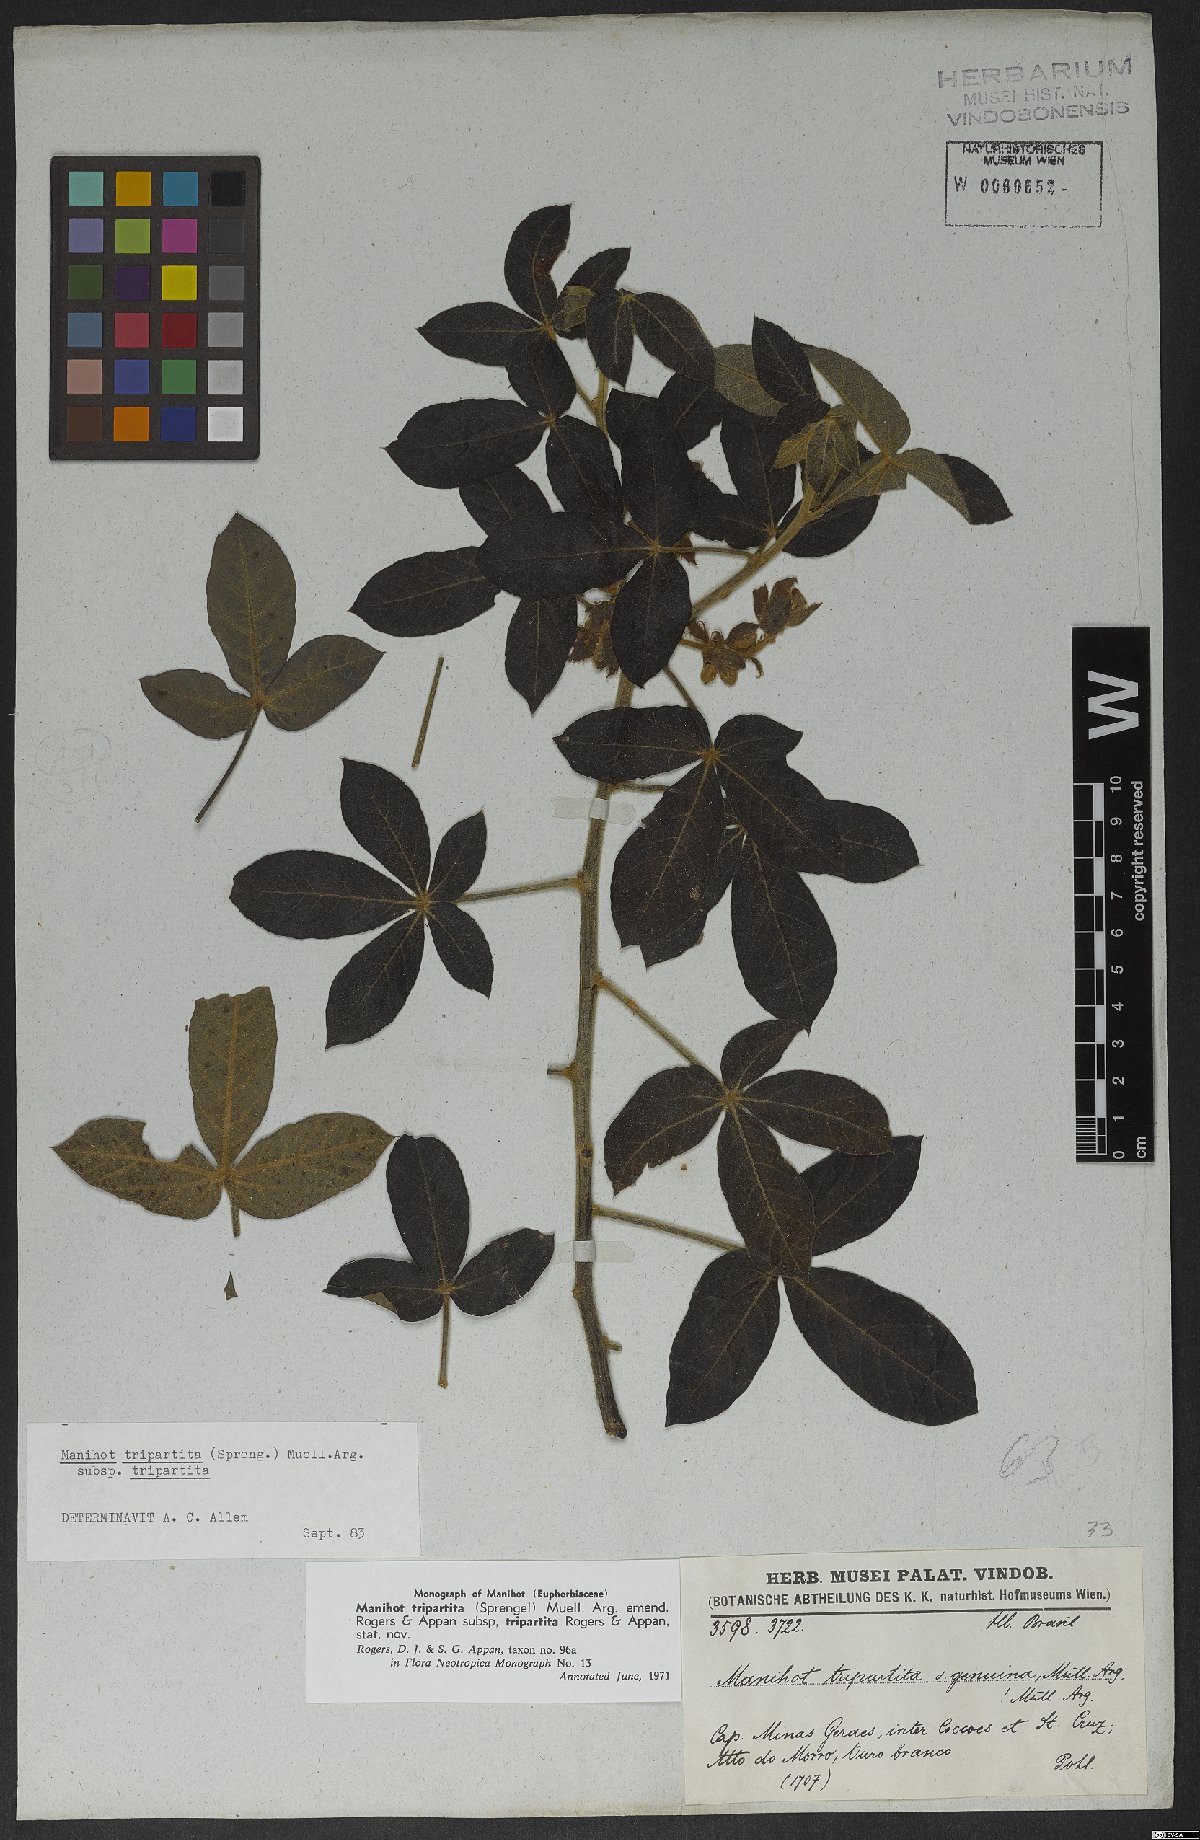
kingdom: Plantae
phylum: Tracheophyta
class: Magnoliopsida
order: Malpighiales
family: Euphorbiaceae
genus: Manihot
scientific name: Manihot tripartita
